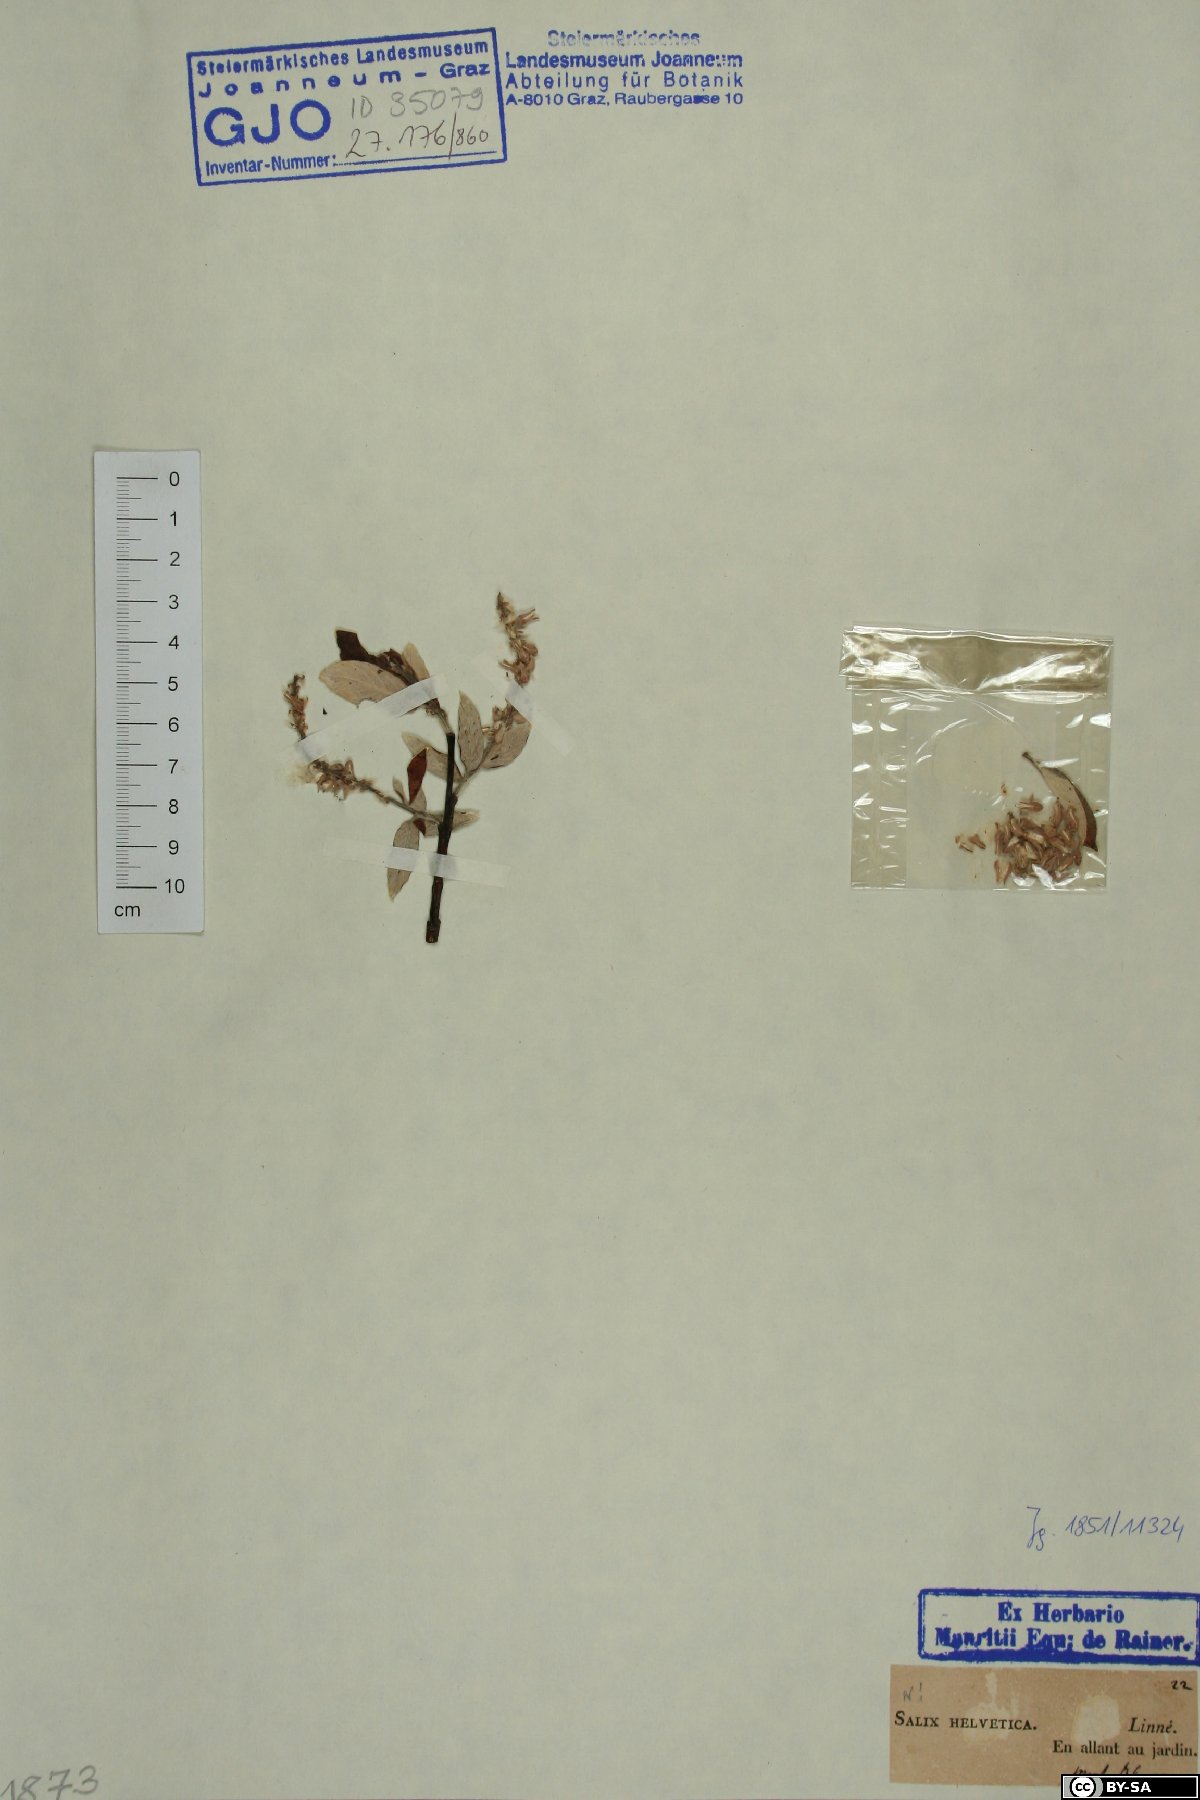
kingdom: Plantae
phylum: Tracheophyta
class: Magnoliopsida
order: Malpighiales
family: Salicaceae
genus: Salix
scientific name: Salix helvetica
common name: Swiss willow
